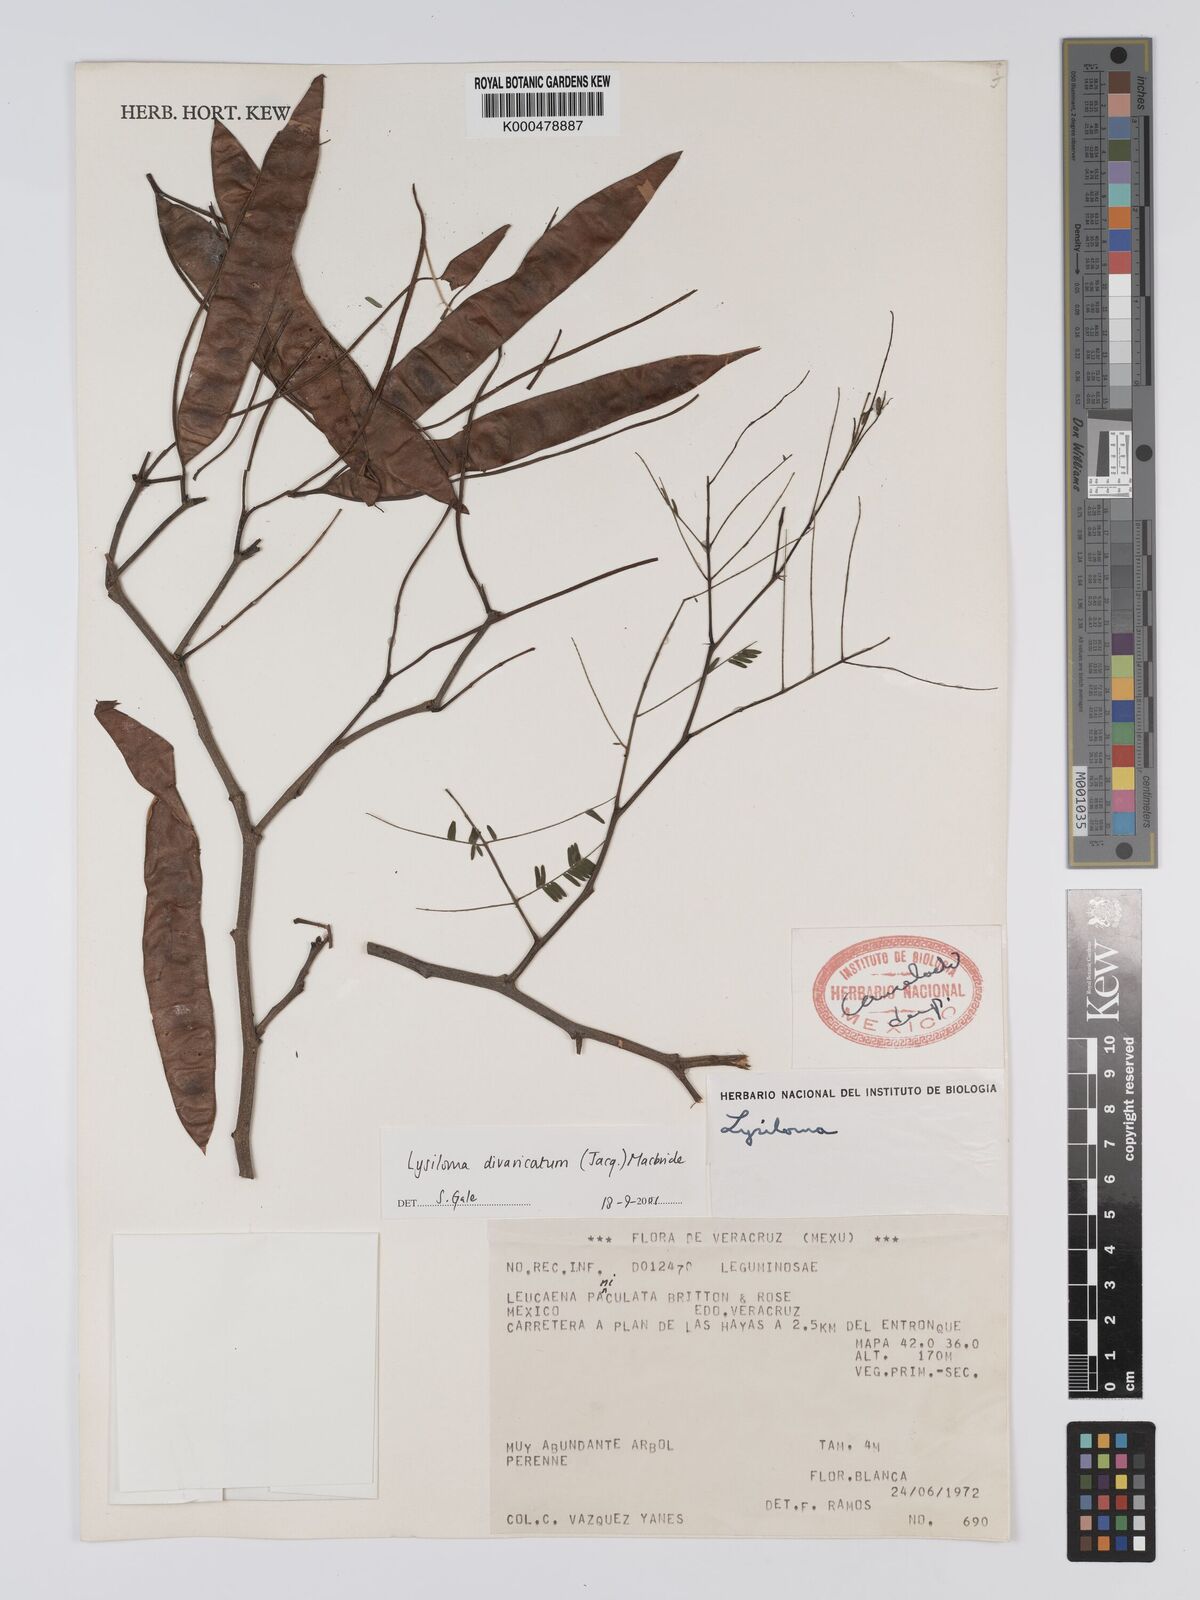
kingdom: Plantae
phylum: Tracheophyta
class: Magnoliopsida
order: Fabales
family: Fabaceae
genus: Lysiloma
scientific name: Lysiloma divaricatum
